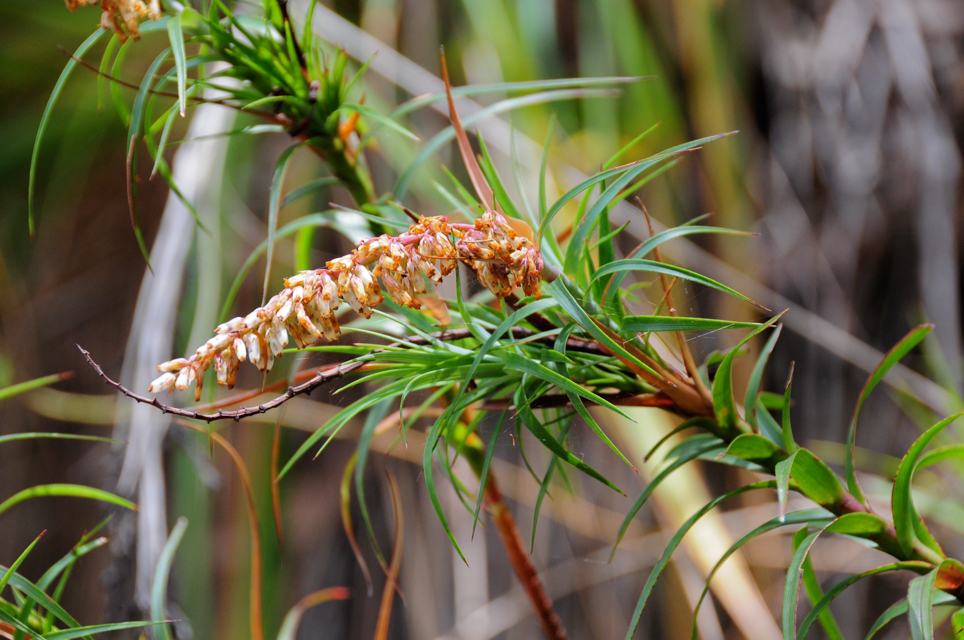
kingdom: Plantae
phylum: Tracheophyta
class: Magnoliopsida
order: Ericales
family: Ericaceae
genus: Dracophyllum
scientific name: Dracophyllum secundum
